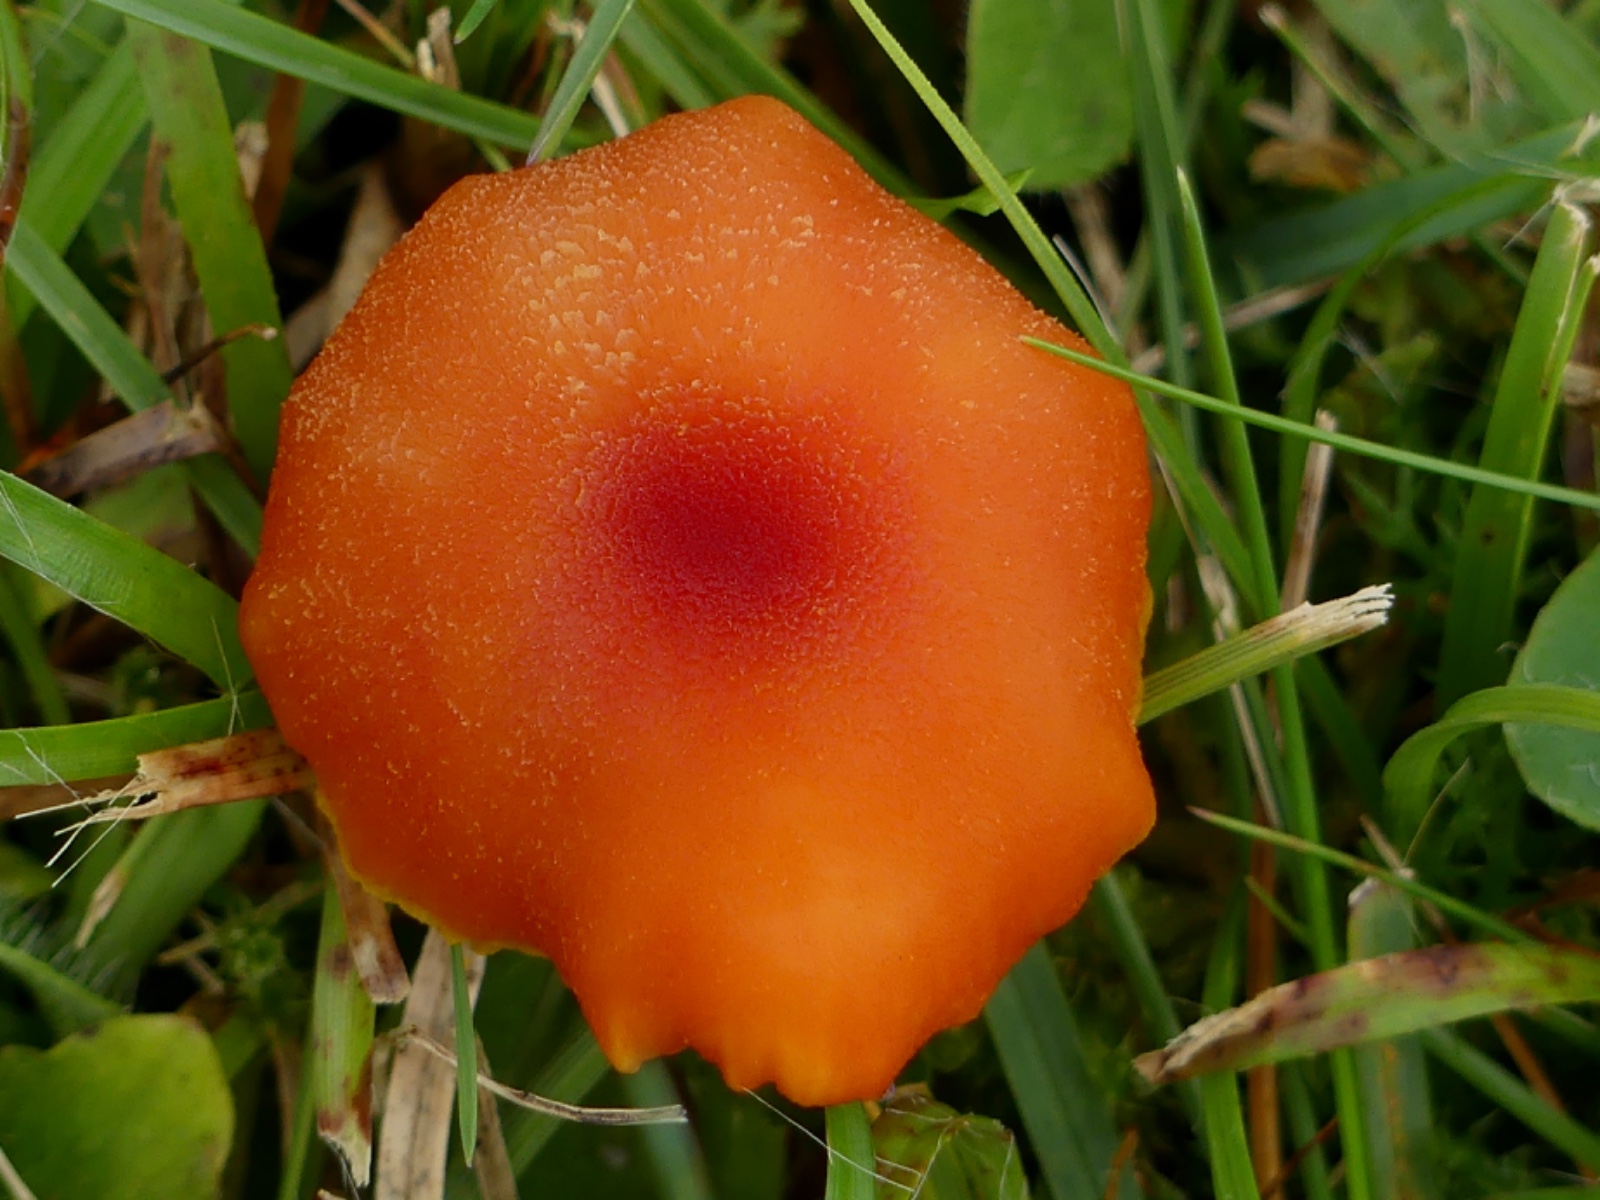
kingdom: Fungi
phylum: Basidiomycota
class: Agaricomycetes
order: Agaricales
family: Hygrophoraceae
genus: Hygrocybe
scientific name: Hygrocybe miniata
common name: mønje-vokshat
